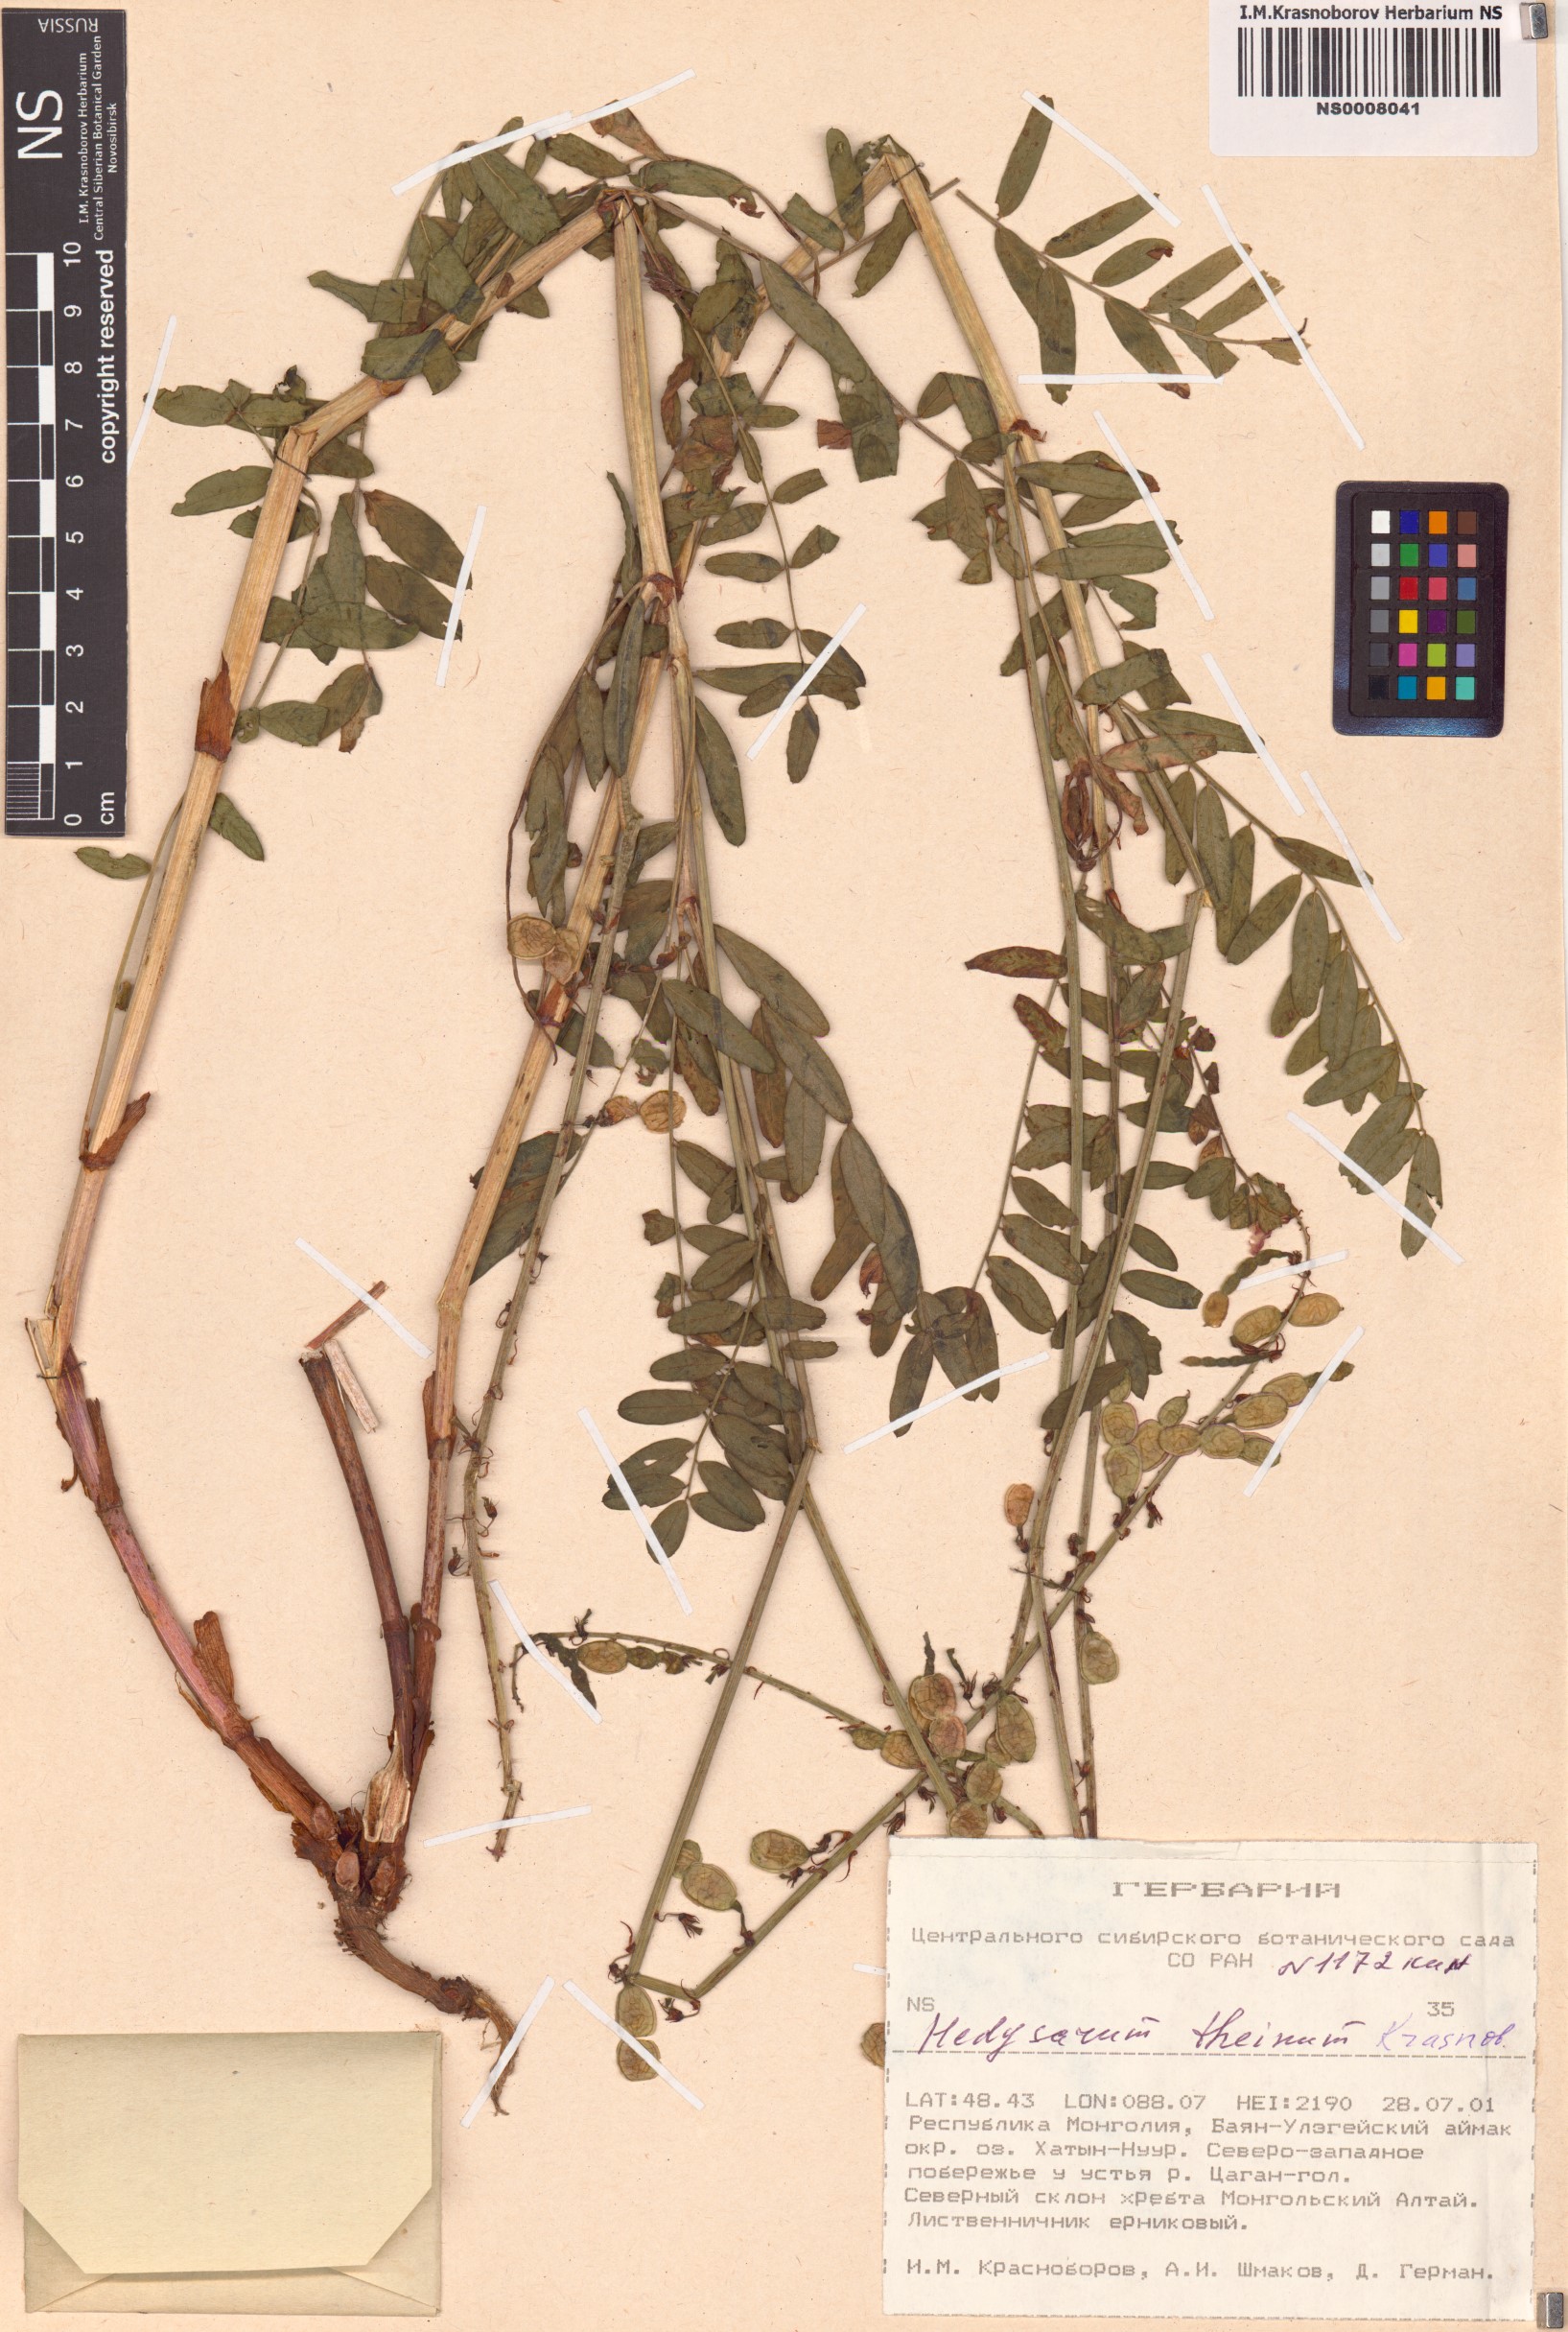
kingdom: Plantae
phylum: Tracheophyta
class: Magnoliopsida
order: Fabales
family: Fabaceae
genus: Hedysarum
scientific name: Hedysarum theinum
